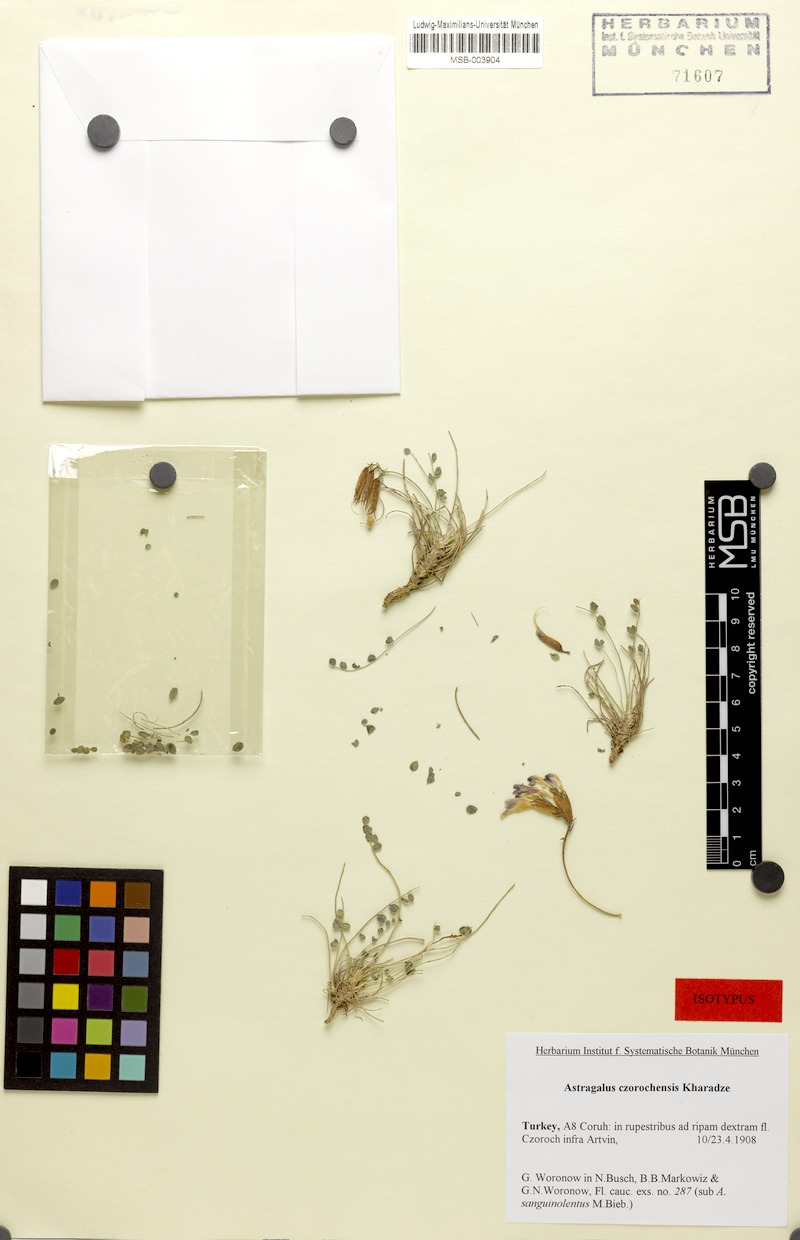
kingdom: Plantae
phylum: Tracheophyta
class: Magnoliopsida
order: Fabales
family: Fabaceae
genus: Astragalus
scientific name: Astragalus czorochensis
